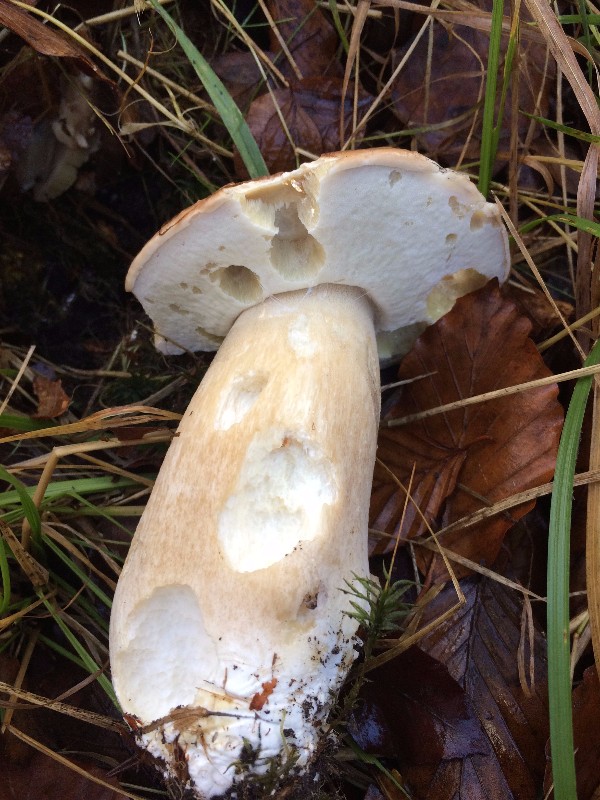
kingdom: Fungi
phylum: Basidiomycota
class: Agaricomycetes
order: Boletales
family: Boletaceae
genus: Boletus
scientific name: Boletus edulis
